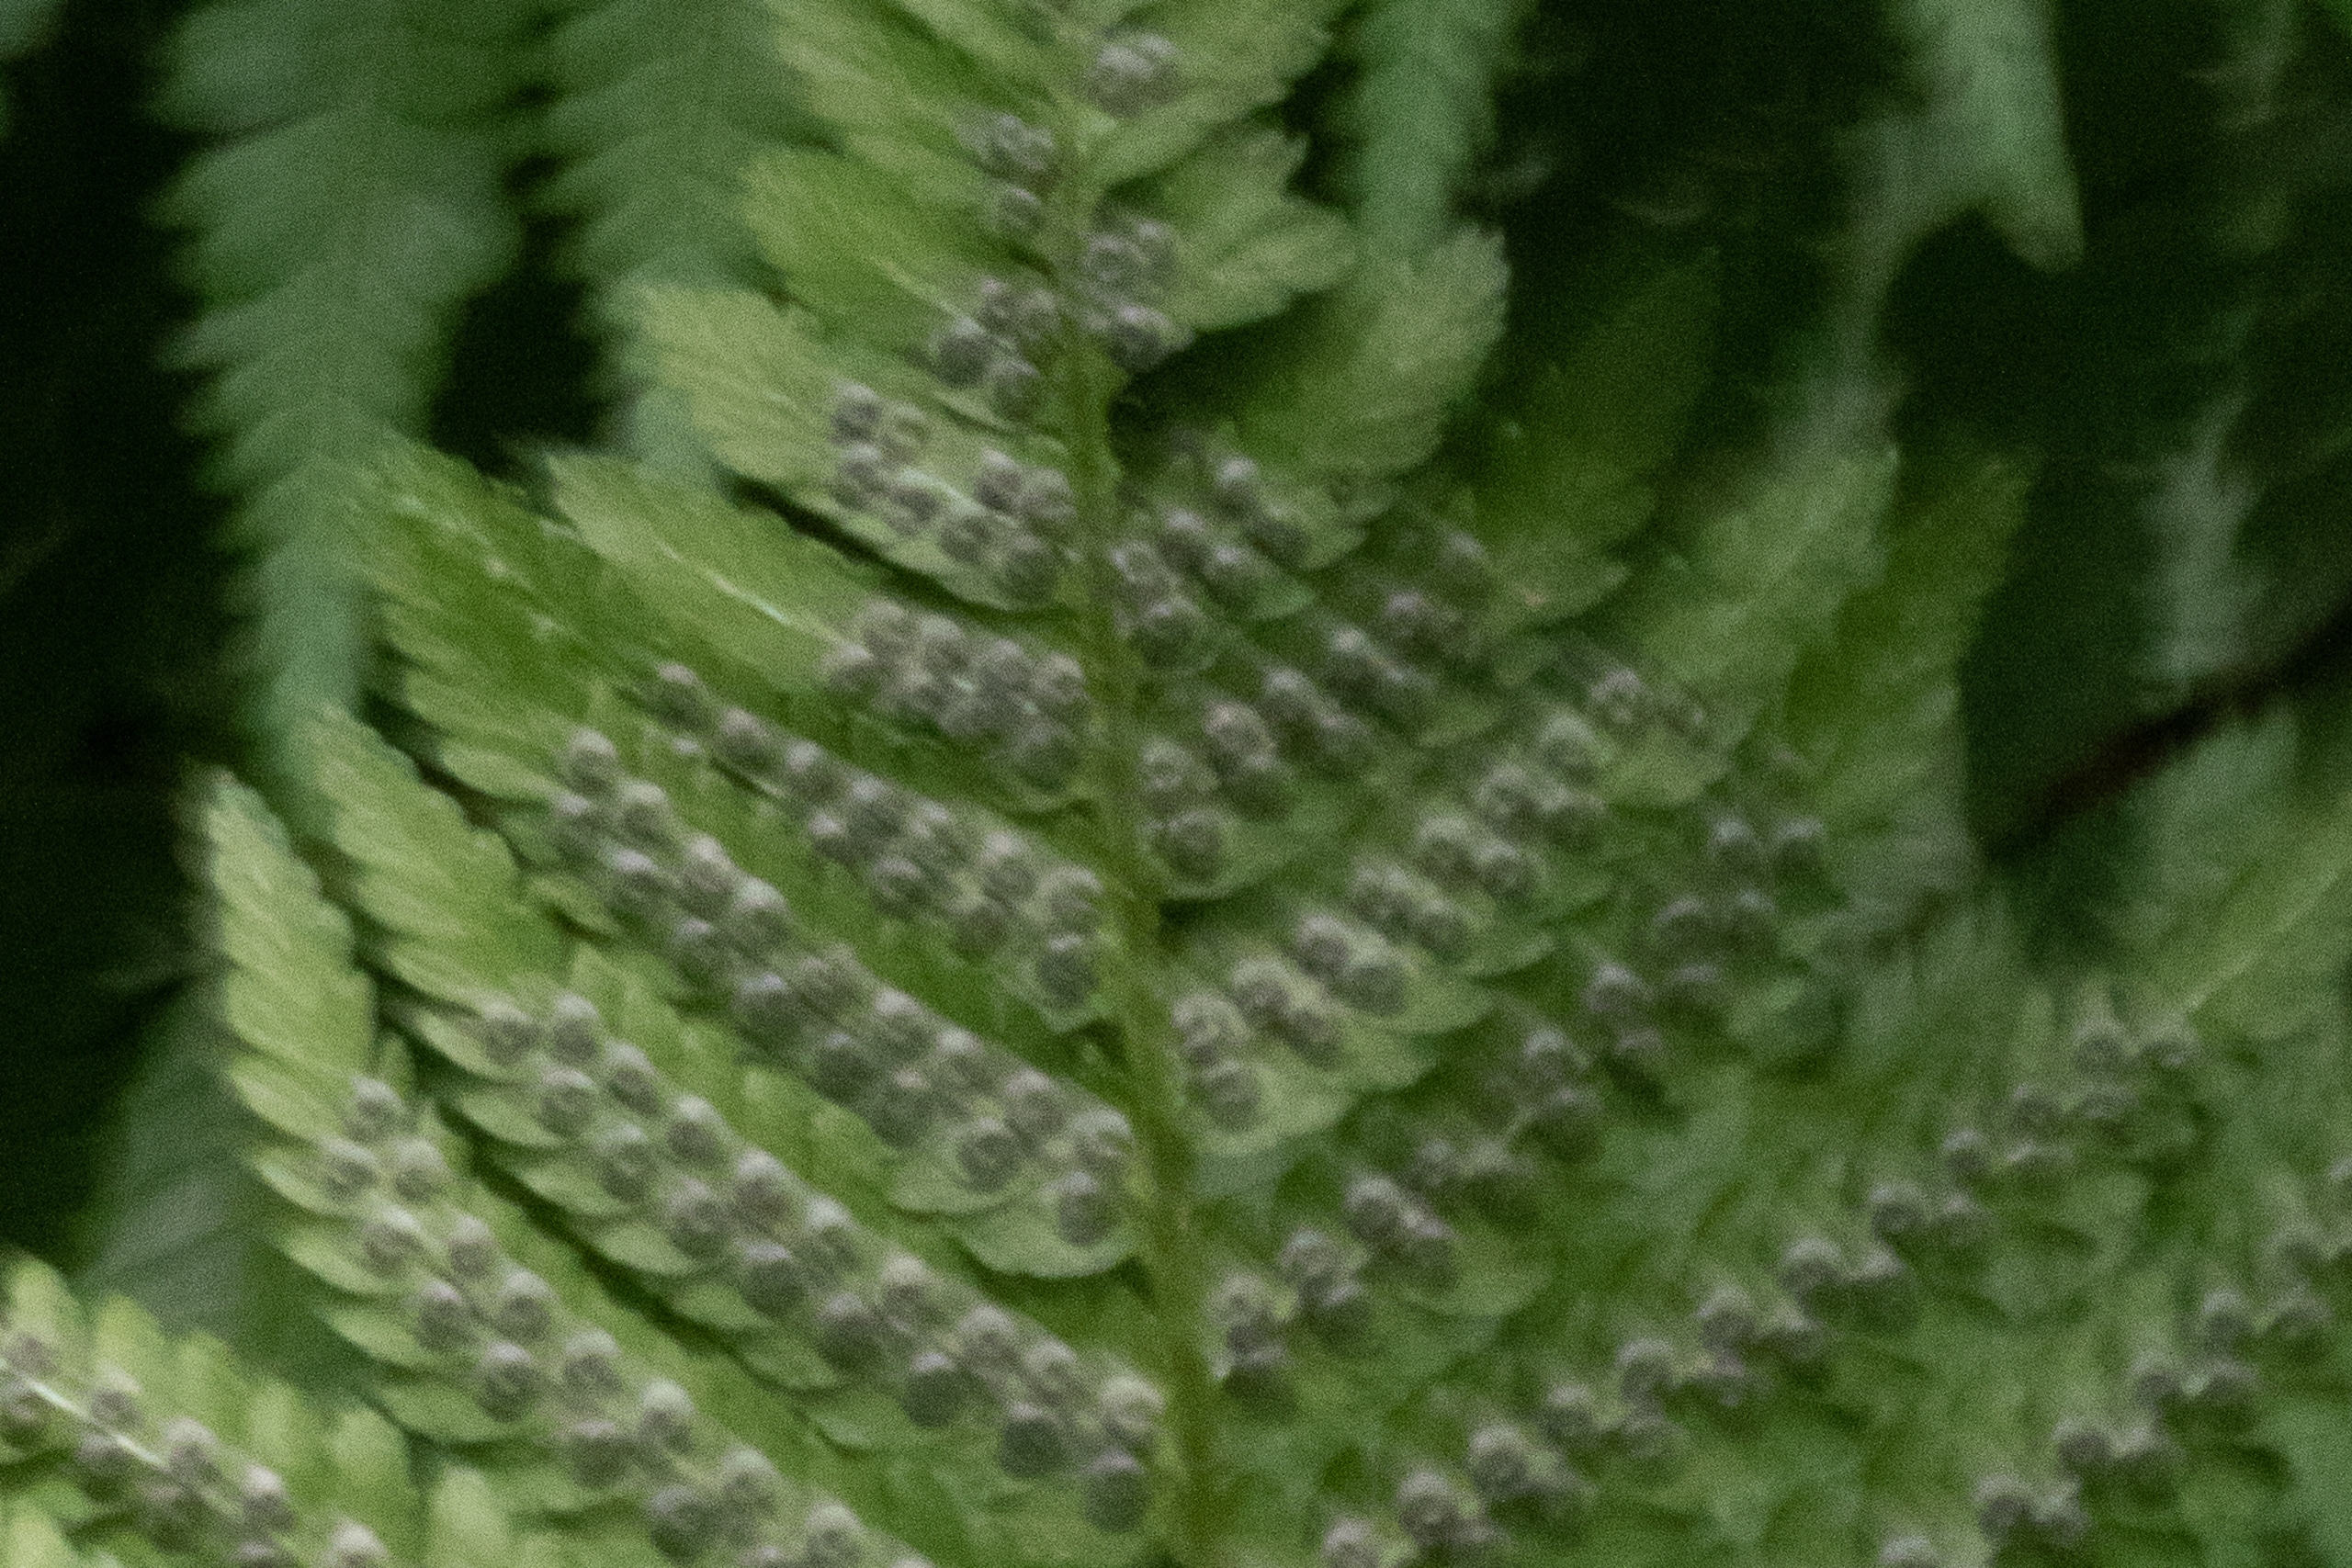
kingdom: Plantae
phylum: Tracheophyta
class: Polypodiopsida
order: Polypodiales
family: Dryopteridaceae
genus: Dryopteris
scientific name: Dryopteris filix-mas
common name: Almindelig mangeløv
